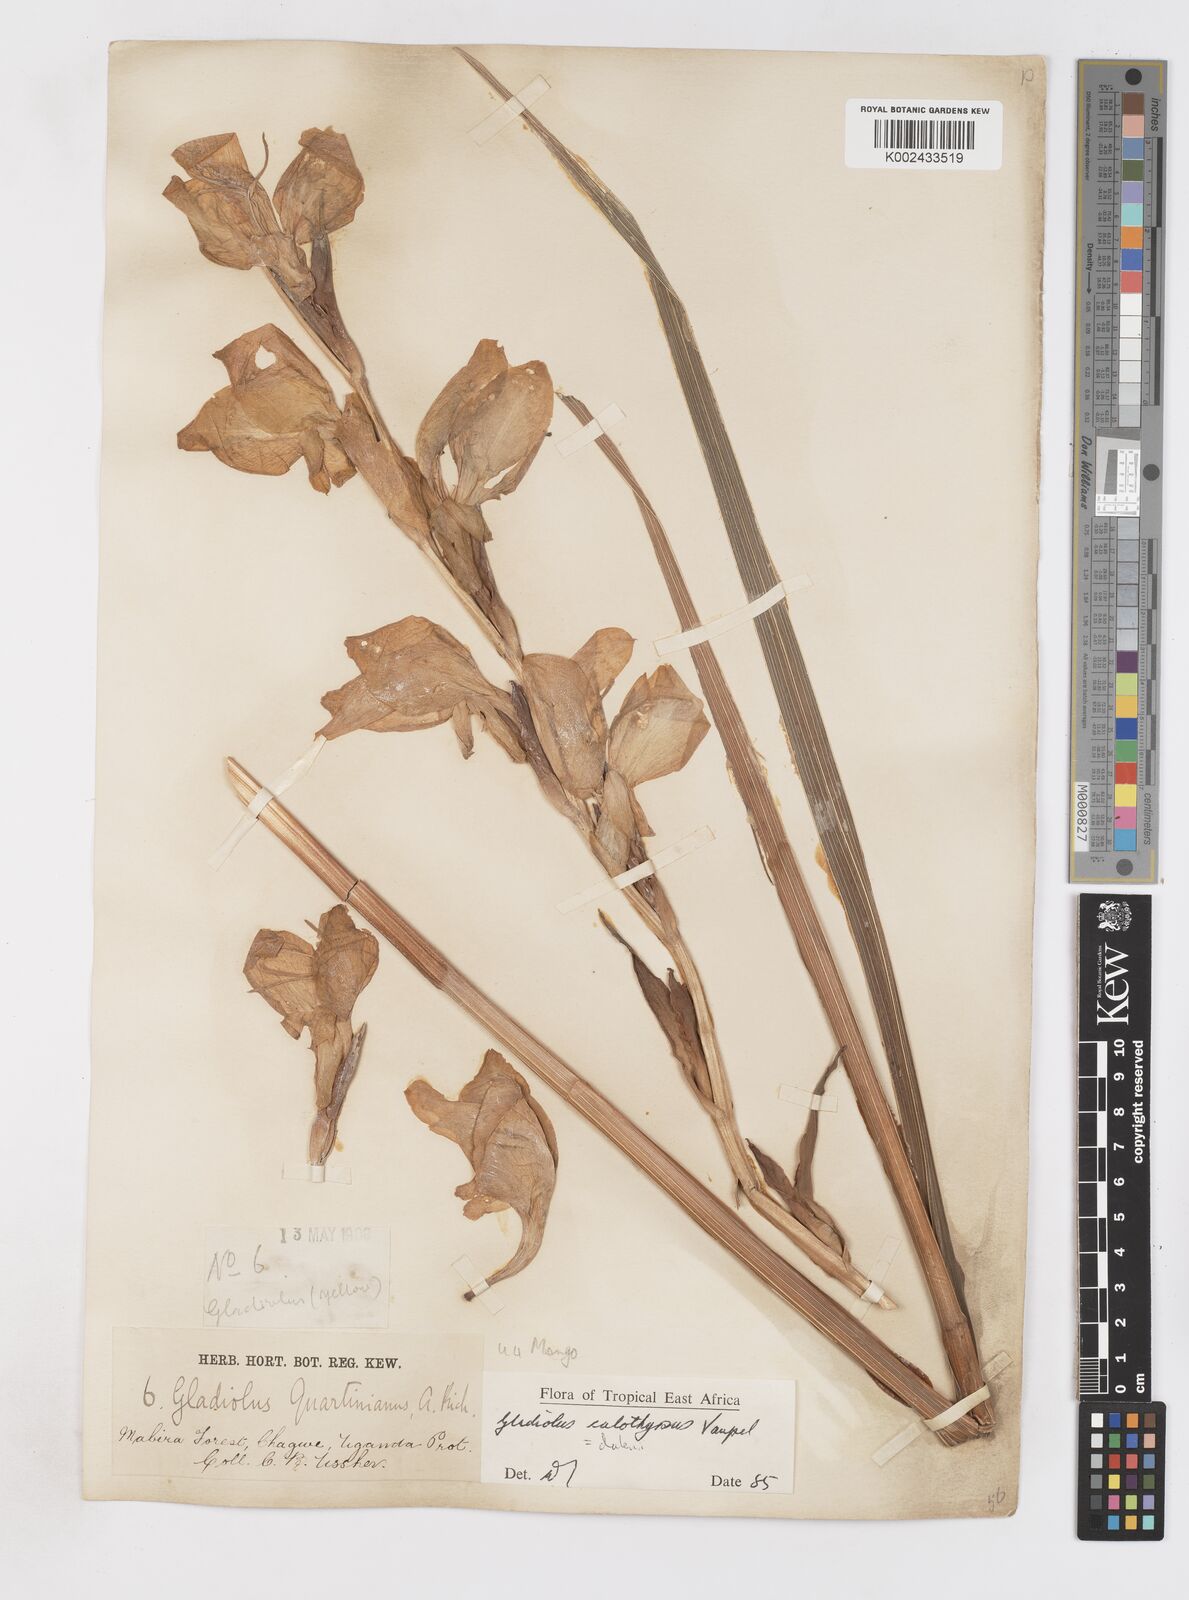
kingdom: Plantae
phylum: Tracheophyta
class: Liliopsida
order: Asparagales
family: Iridaceae
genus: Gladiolus
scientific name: Gladiolus dalenii
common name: Cornflag
